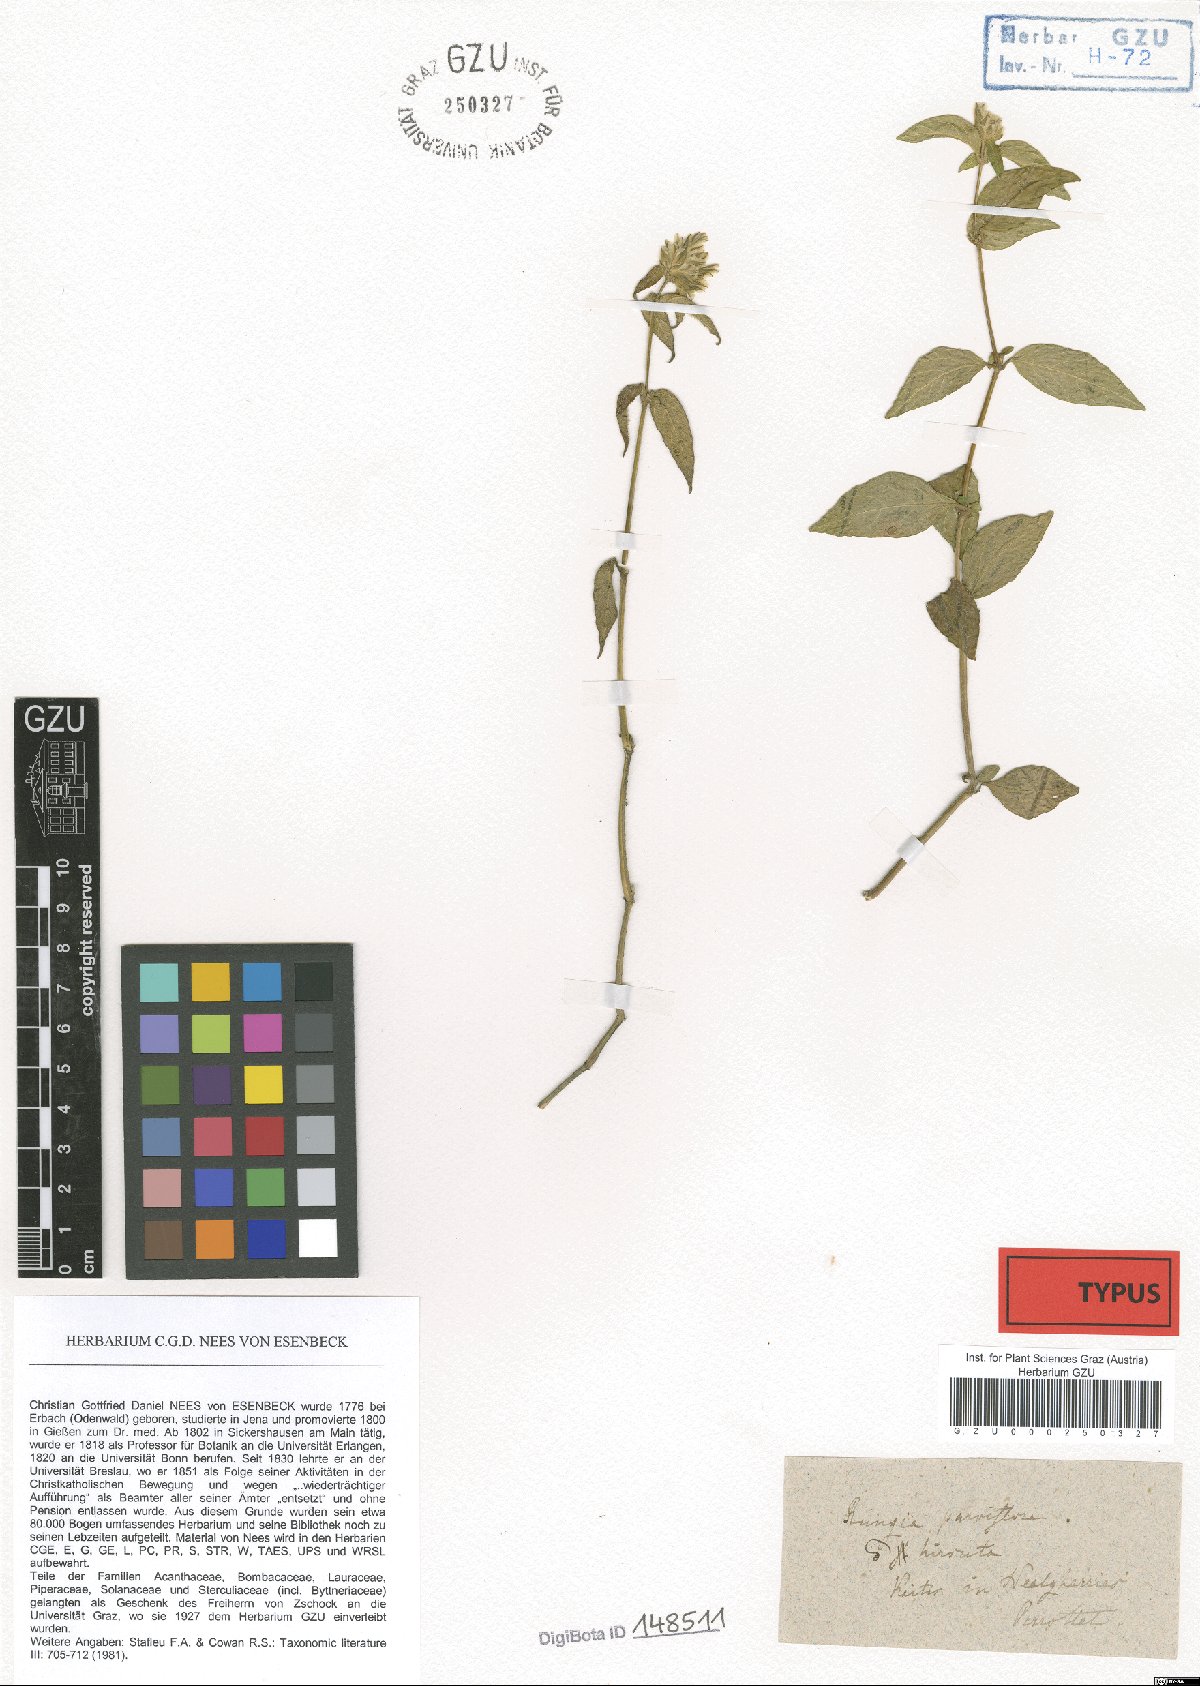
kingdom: Plantae
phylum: Tracheophyta
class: Magnoliopsida
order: Lamiales
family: Acanthaceae
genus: Rungia
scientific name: Rungia parviflora
